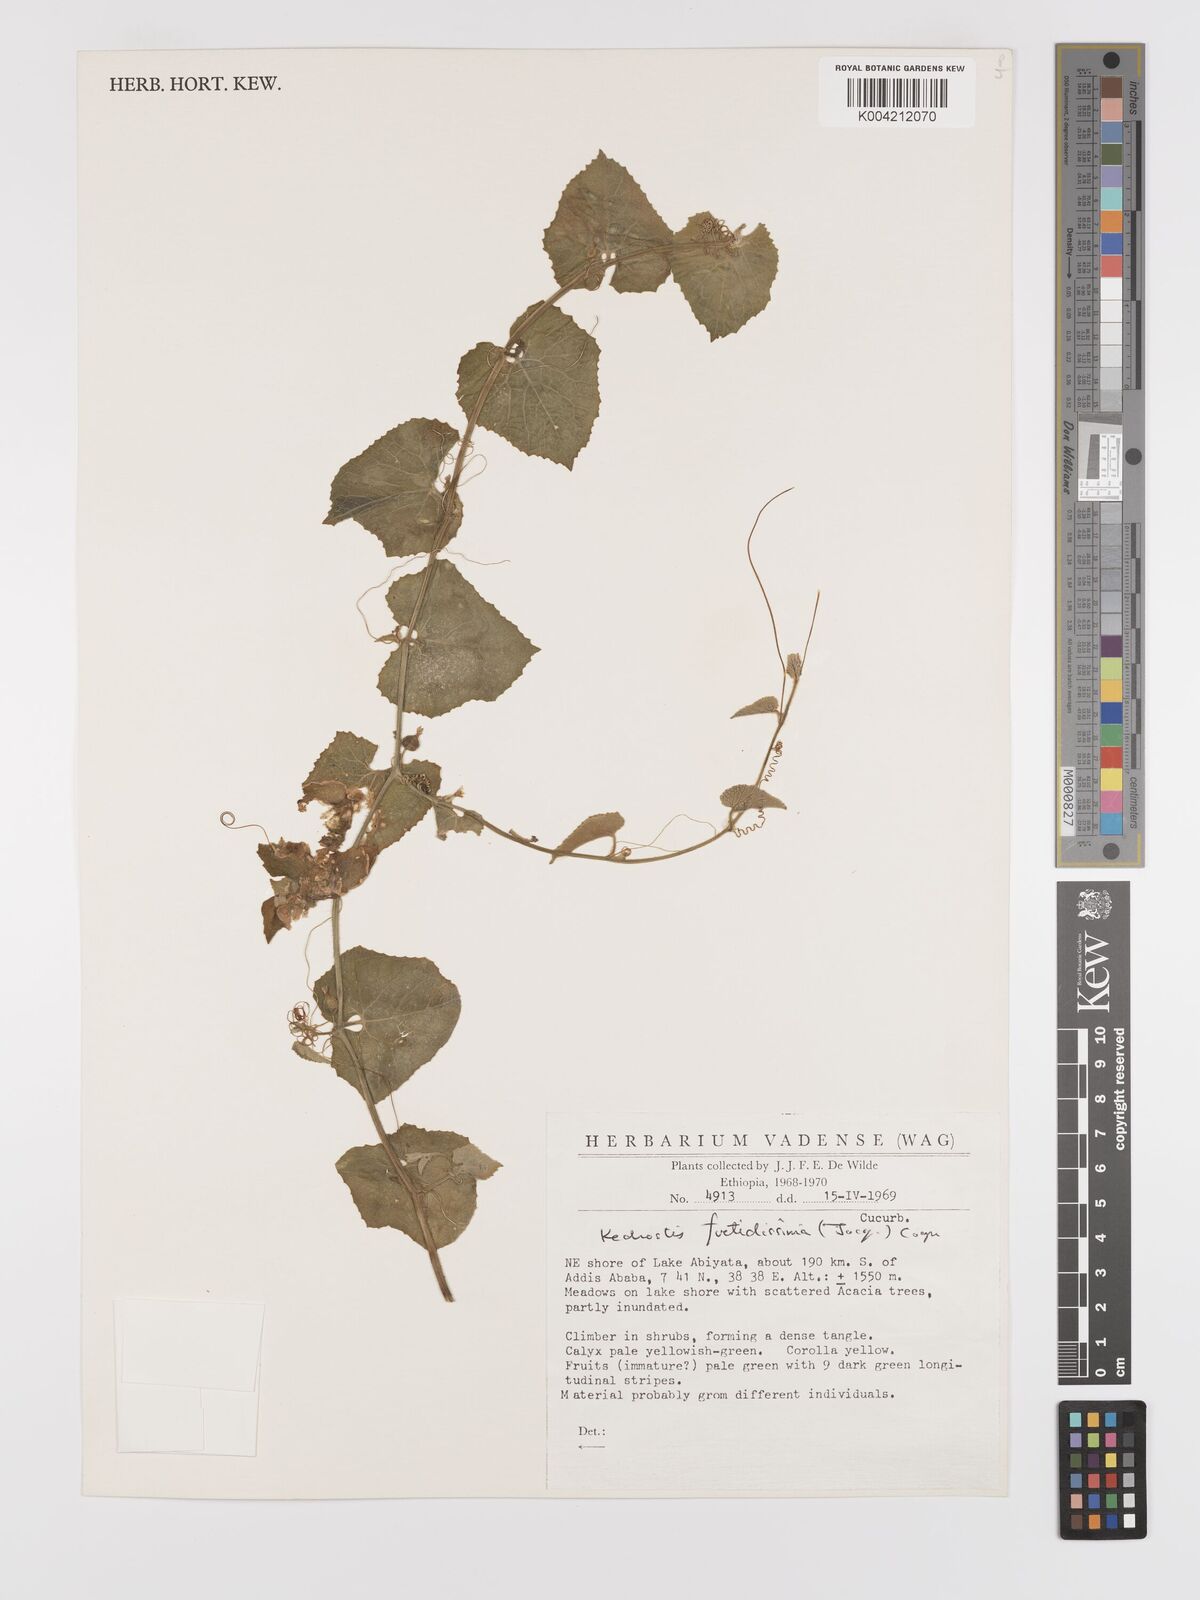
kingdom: Plantae
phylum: Tracheophyta
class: Magnoliopsida
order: Cucurbitales
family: Cucurbitaceae
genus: Kedrostis
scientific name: Kedrostis foetidissima
